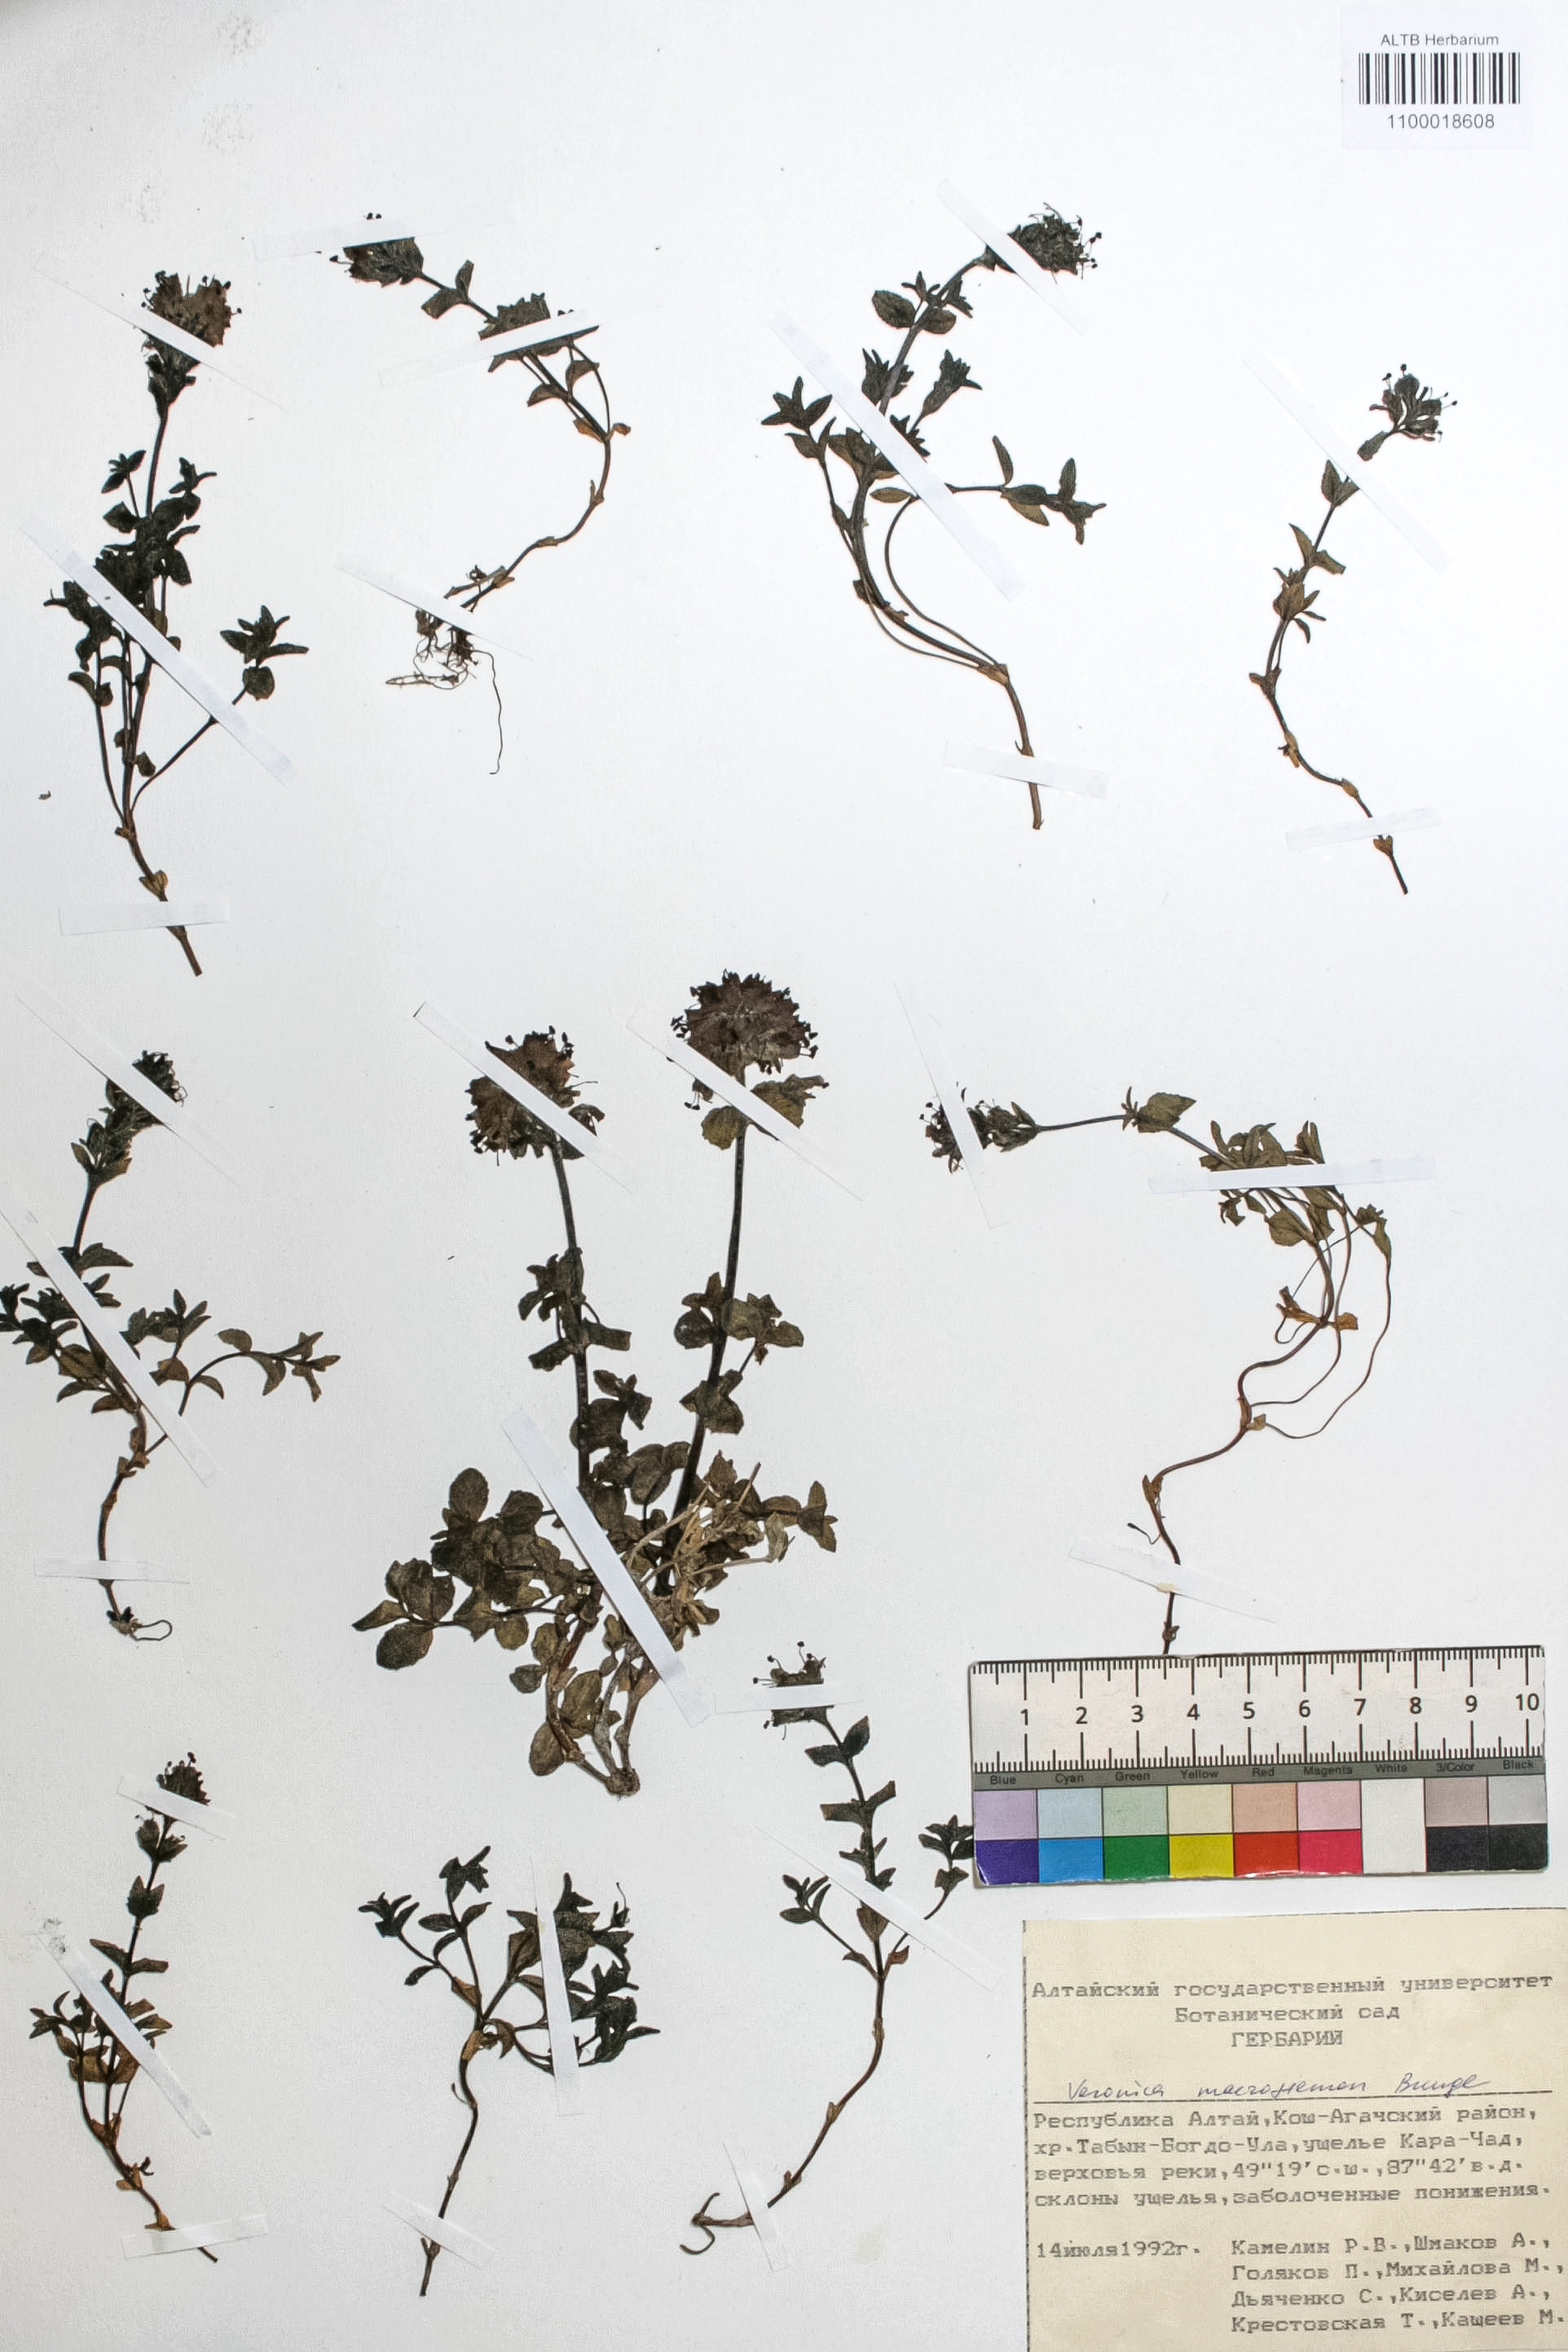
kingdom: Plantae
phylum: Tracheophyta
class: Magnoliopsida
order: Lamiales
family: Plantaginaceae
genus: Veronica
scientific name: Veronica macrostemon
